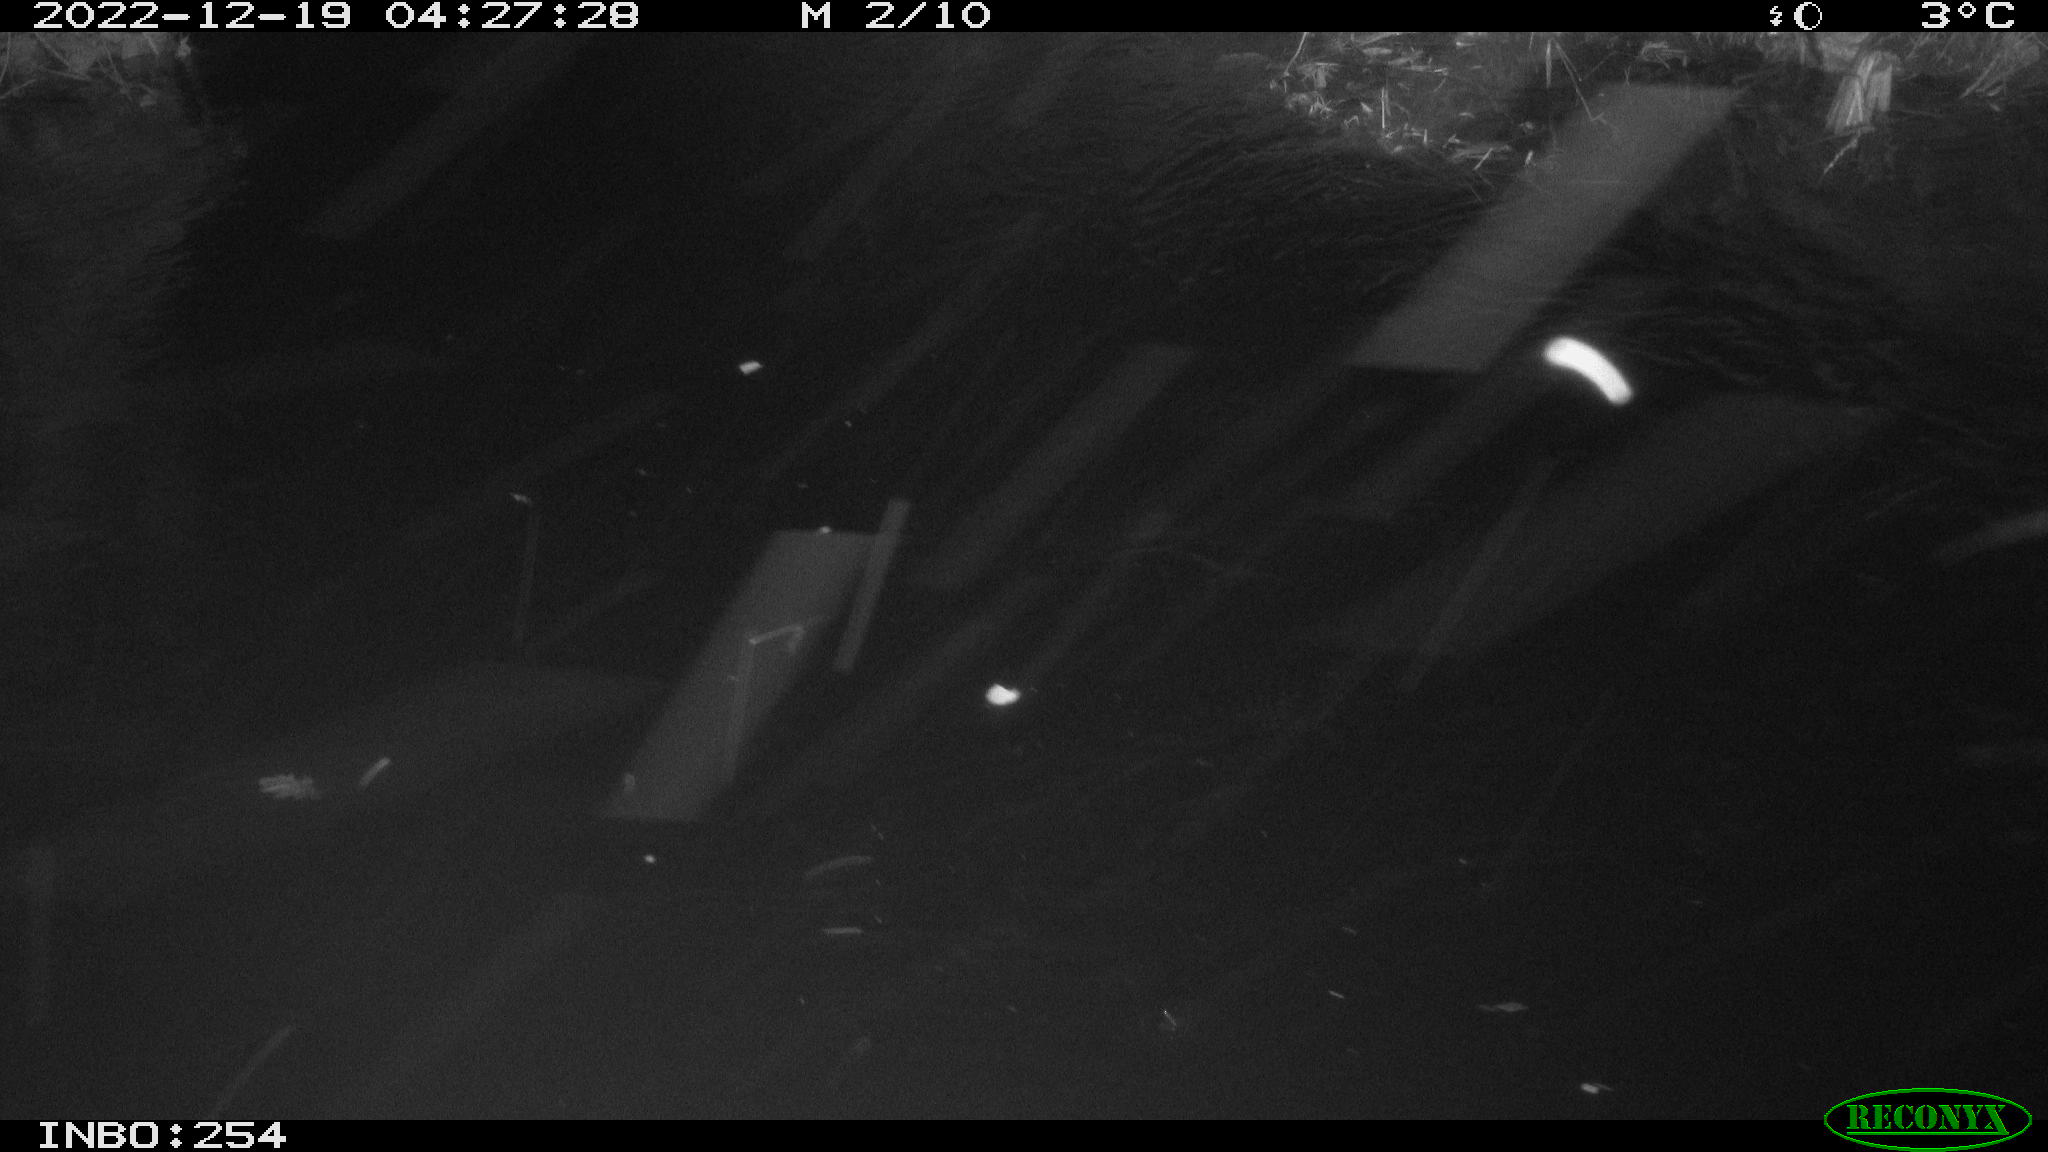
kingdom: Animalia
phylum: Chordata
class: Aves
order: Anseriformes
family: Anatidae
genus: Anas
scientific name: Anas
